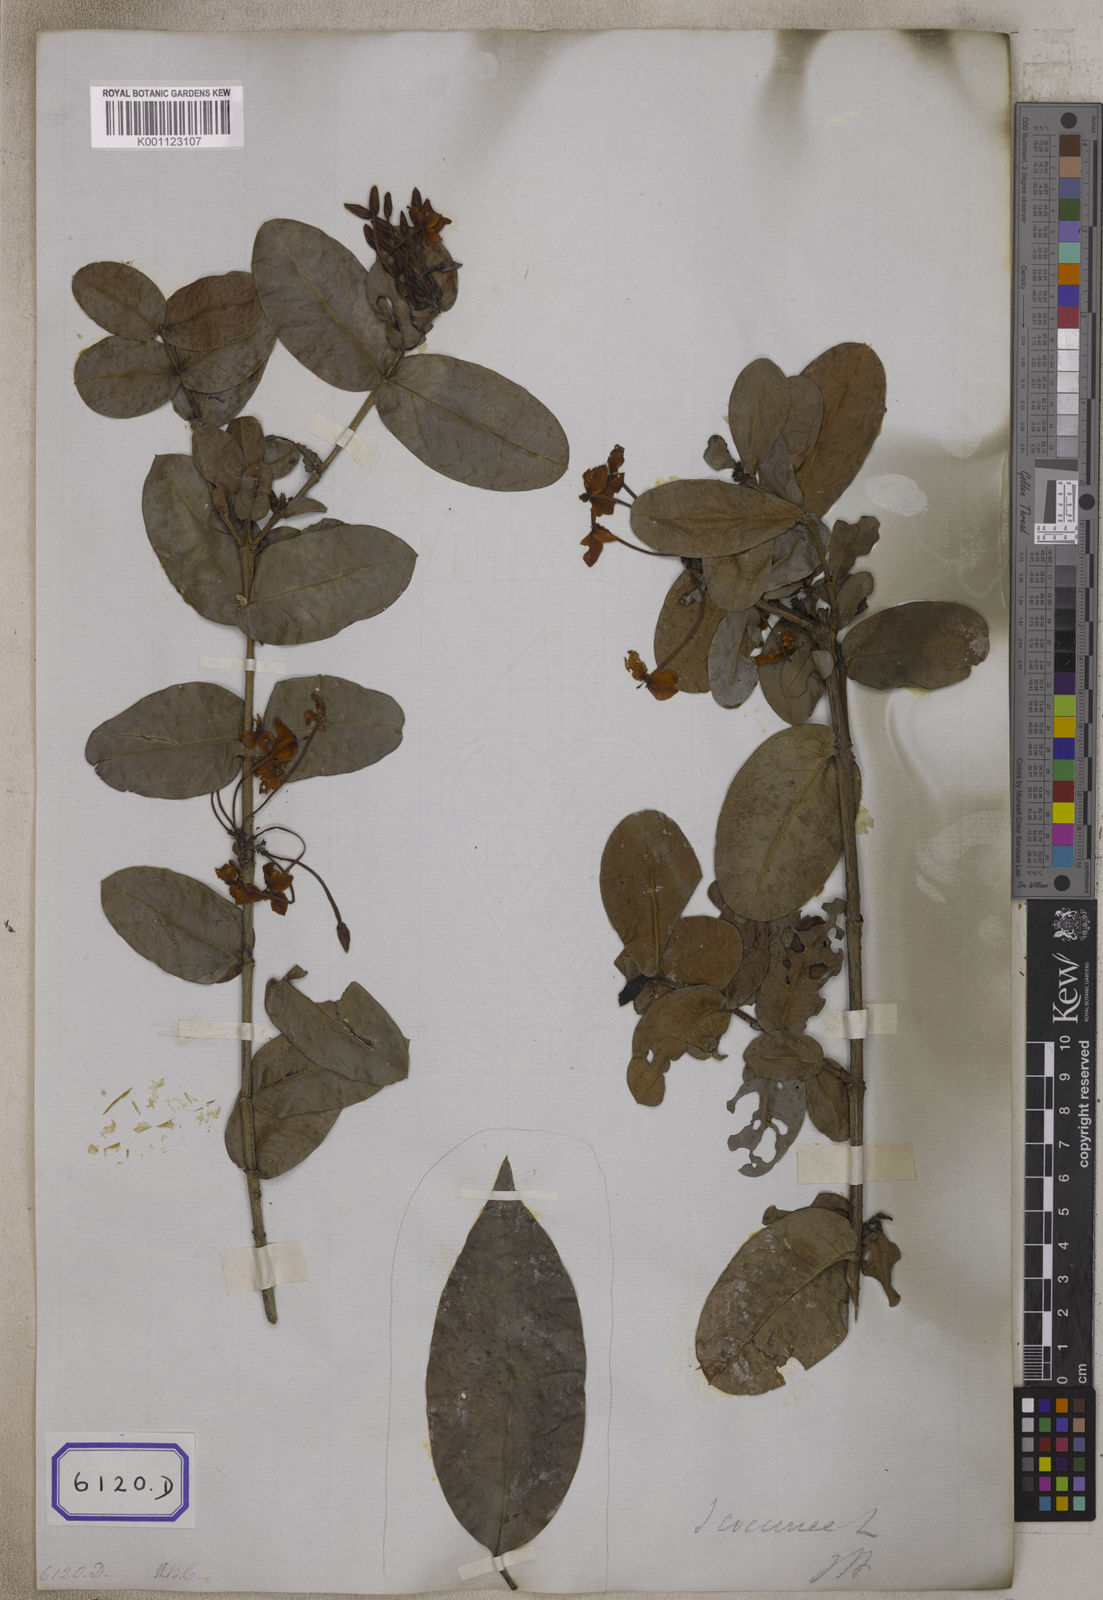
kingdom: Plantae
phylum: Tracheophyta
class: Magnoliopsida
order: Gentianales
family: Rubiaceae
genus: Ixora
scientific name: Ixora coccinea
